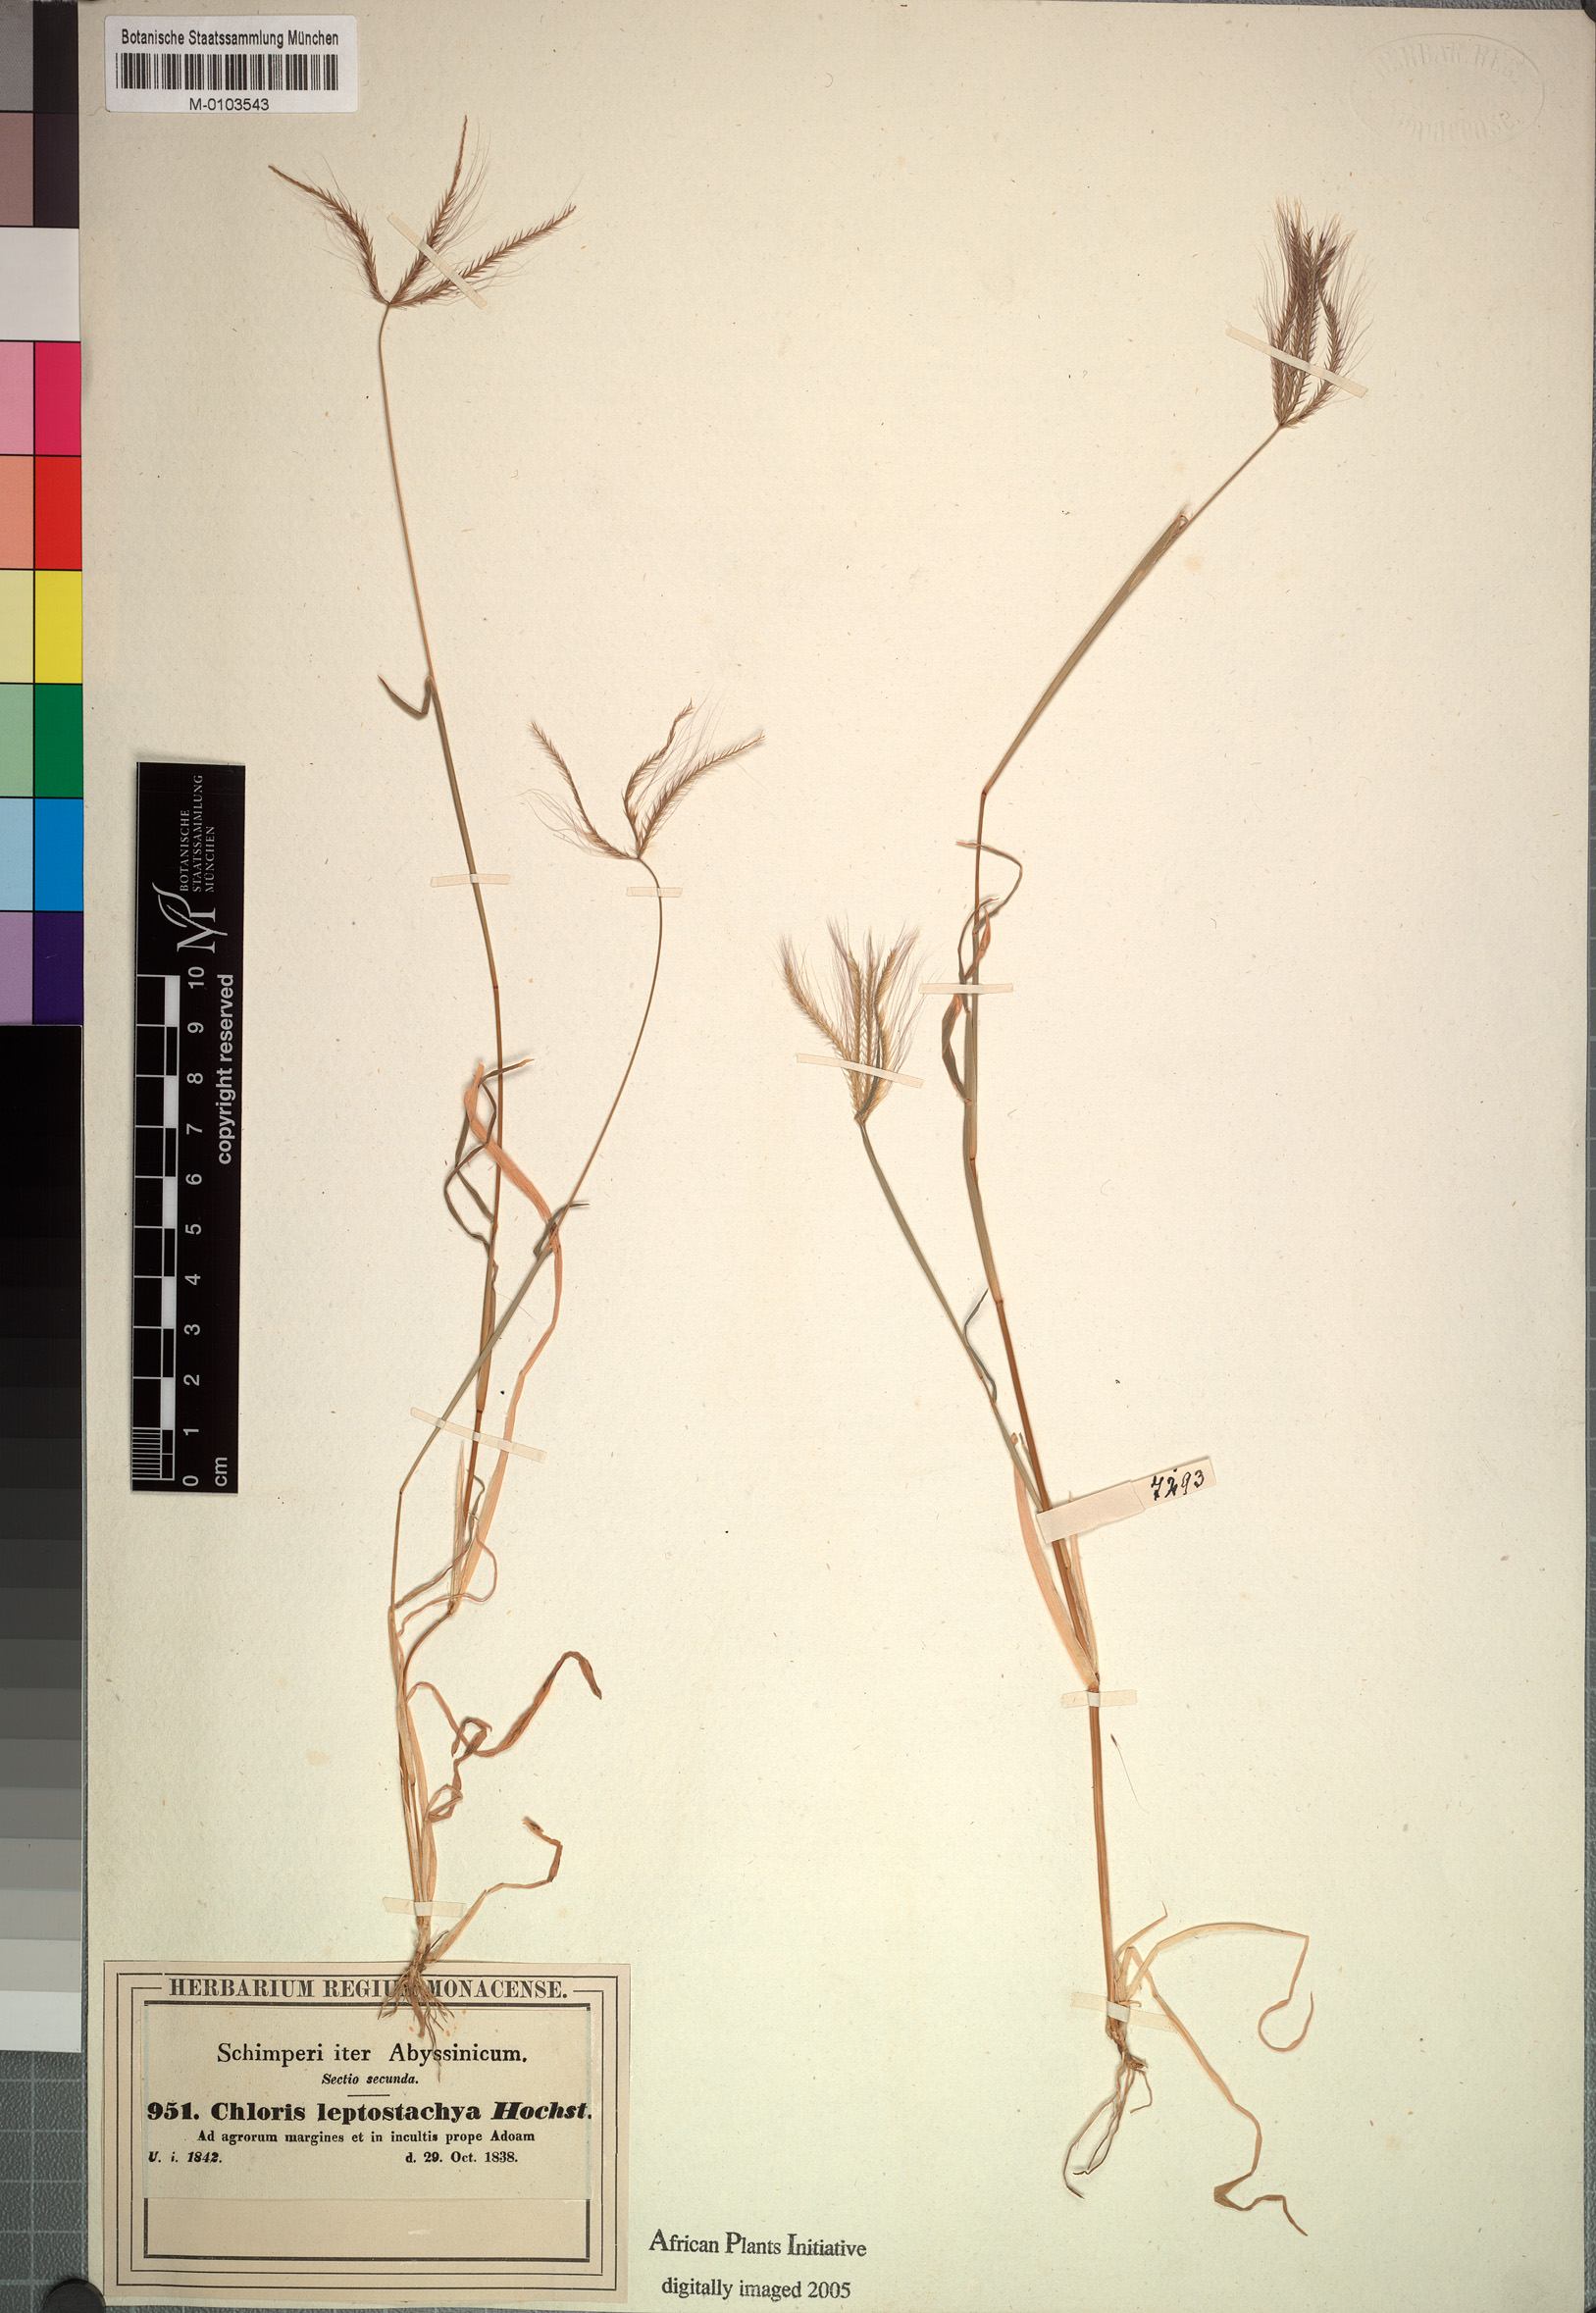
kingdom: Plantae
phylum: Tracheophyta
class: Liliopsida
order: Poales
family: Poaceae
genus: Chloris
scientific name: Chloris pycnothrix
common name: Spiderweb chloris
